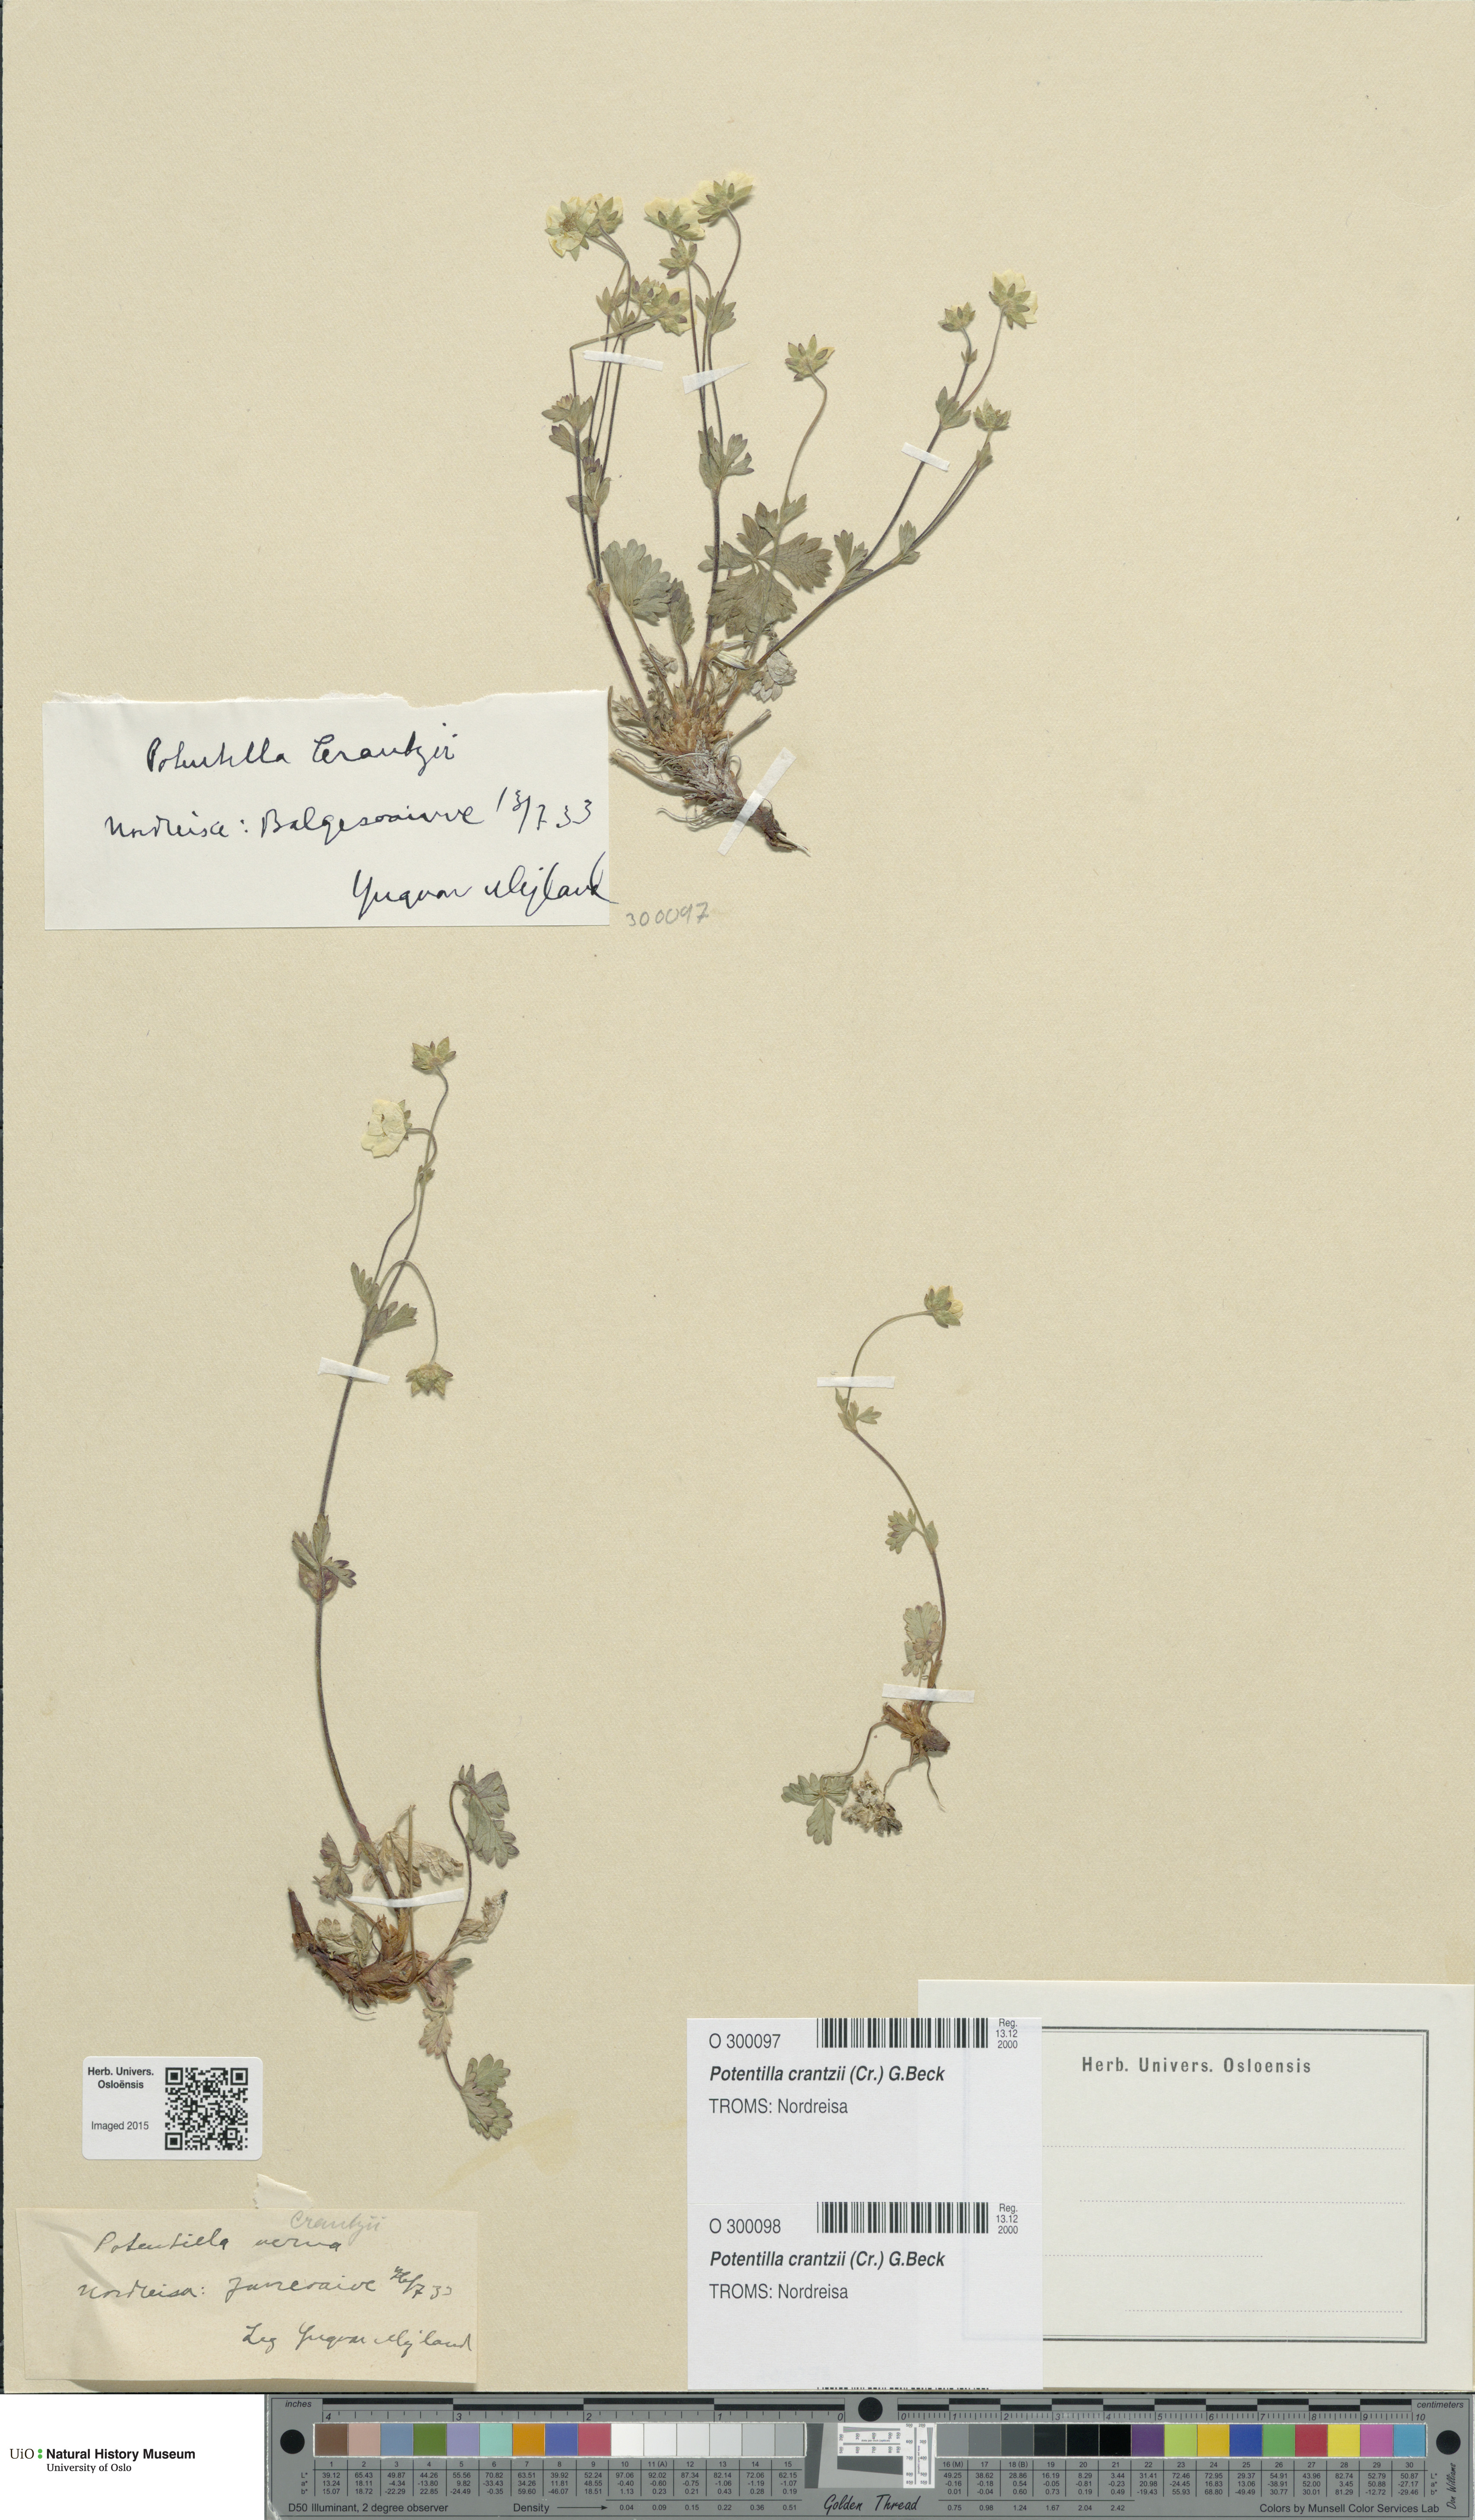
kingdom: Plantae
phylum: Tracheophyta
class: Magnoliopsida
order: Rosales
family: Rosaceae
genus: Potentilla
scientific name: Potentilla crantzii
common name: Alpine cinquefoil
